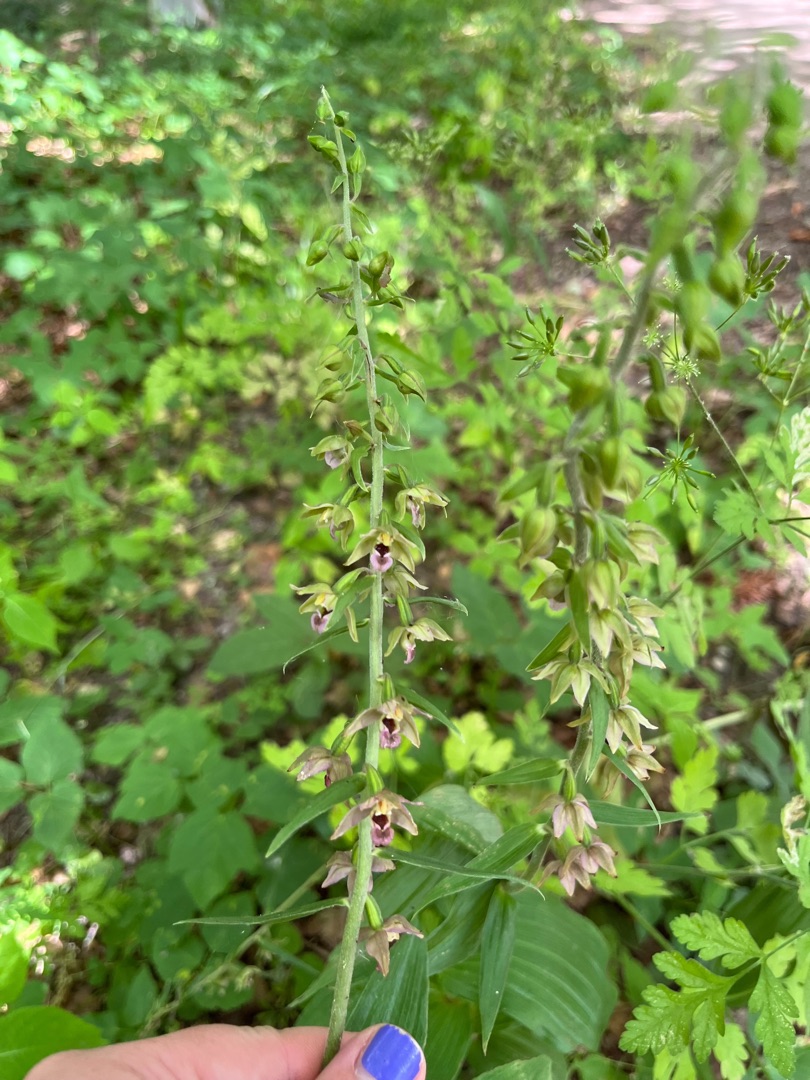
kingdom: Plantae
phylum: Tracheophyta
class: Liliopsida
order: Asparagales
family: Orchidaceae
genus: Epipactis
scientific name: Epipactis helleborine
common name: Skov-hullæbe
